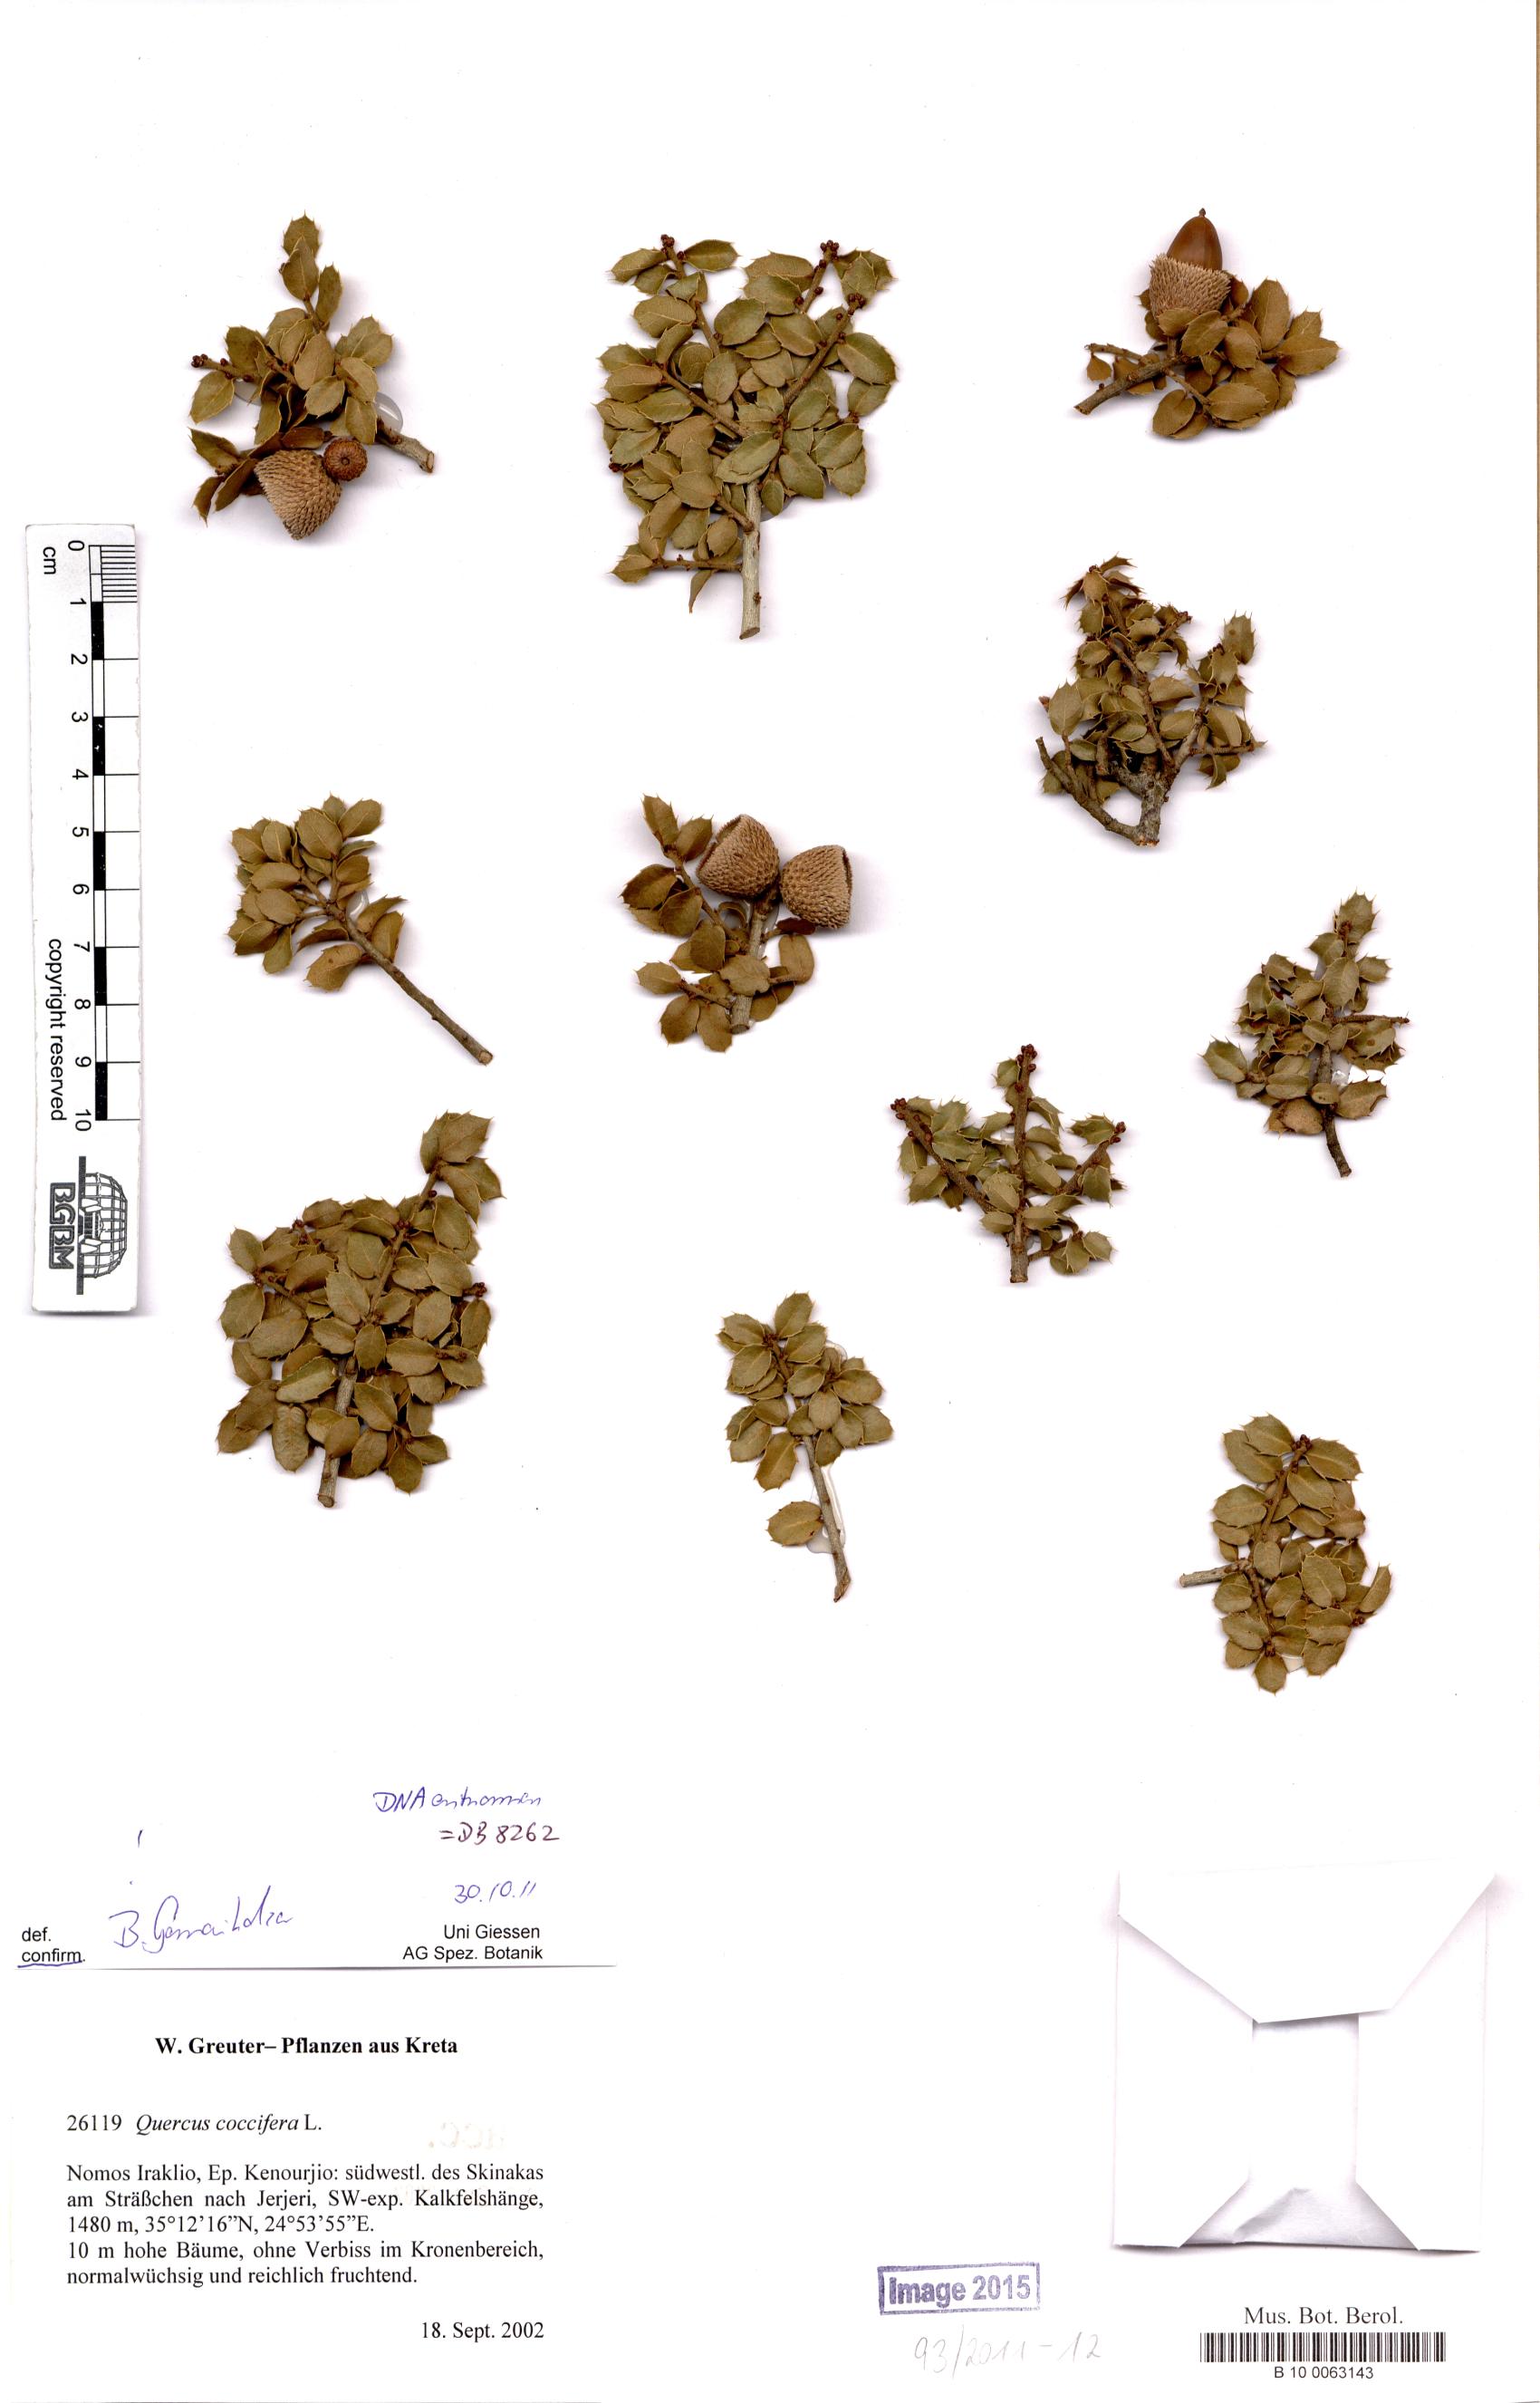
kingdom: Plantae
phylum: Tracheophyta
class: Magnoliopsida
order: Fagales
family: Fagaceae
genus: Quercus
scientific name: Quercus coccifera
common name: Kermes oak
